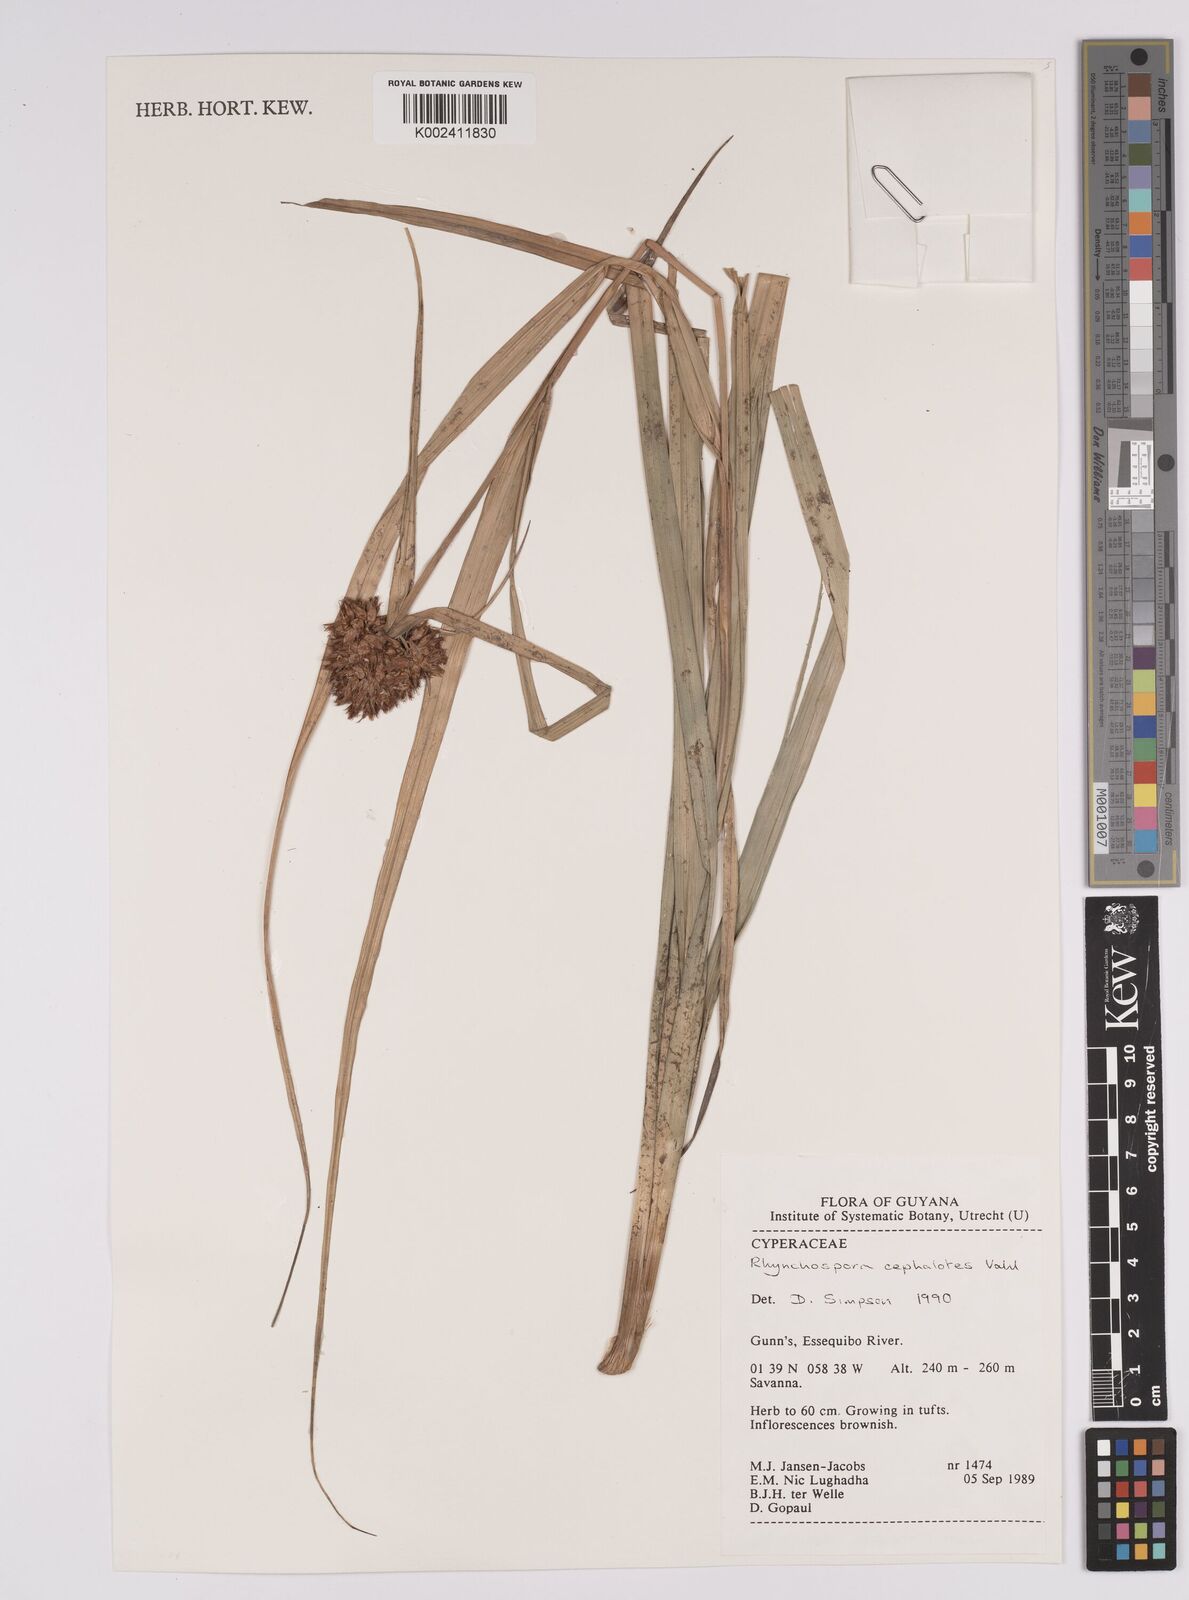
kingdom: Plantae
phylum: Tracheophyta
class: Liliopsida
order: Poales
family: Cyperaceae
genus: Rhynchospora
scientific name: Rhynchospora cephalotes
